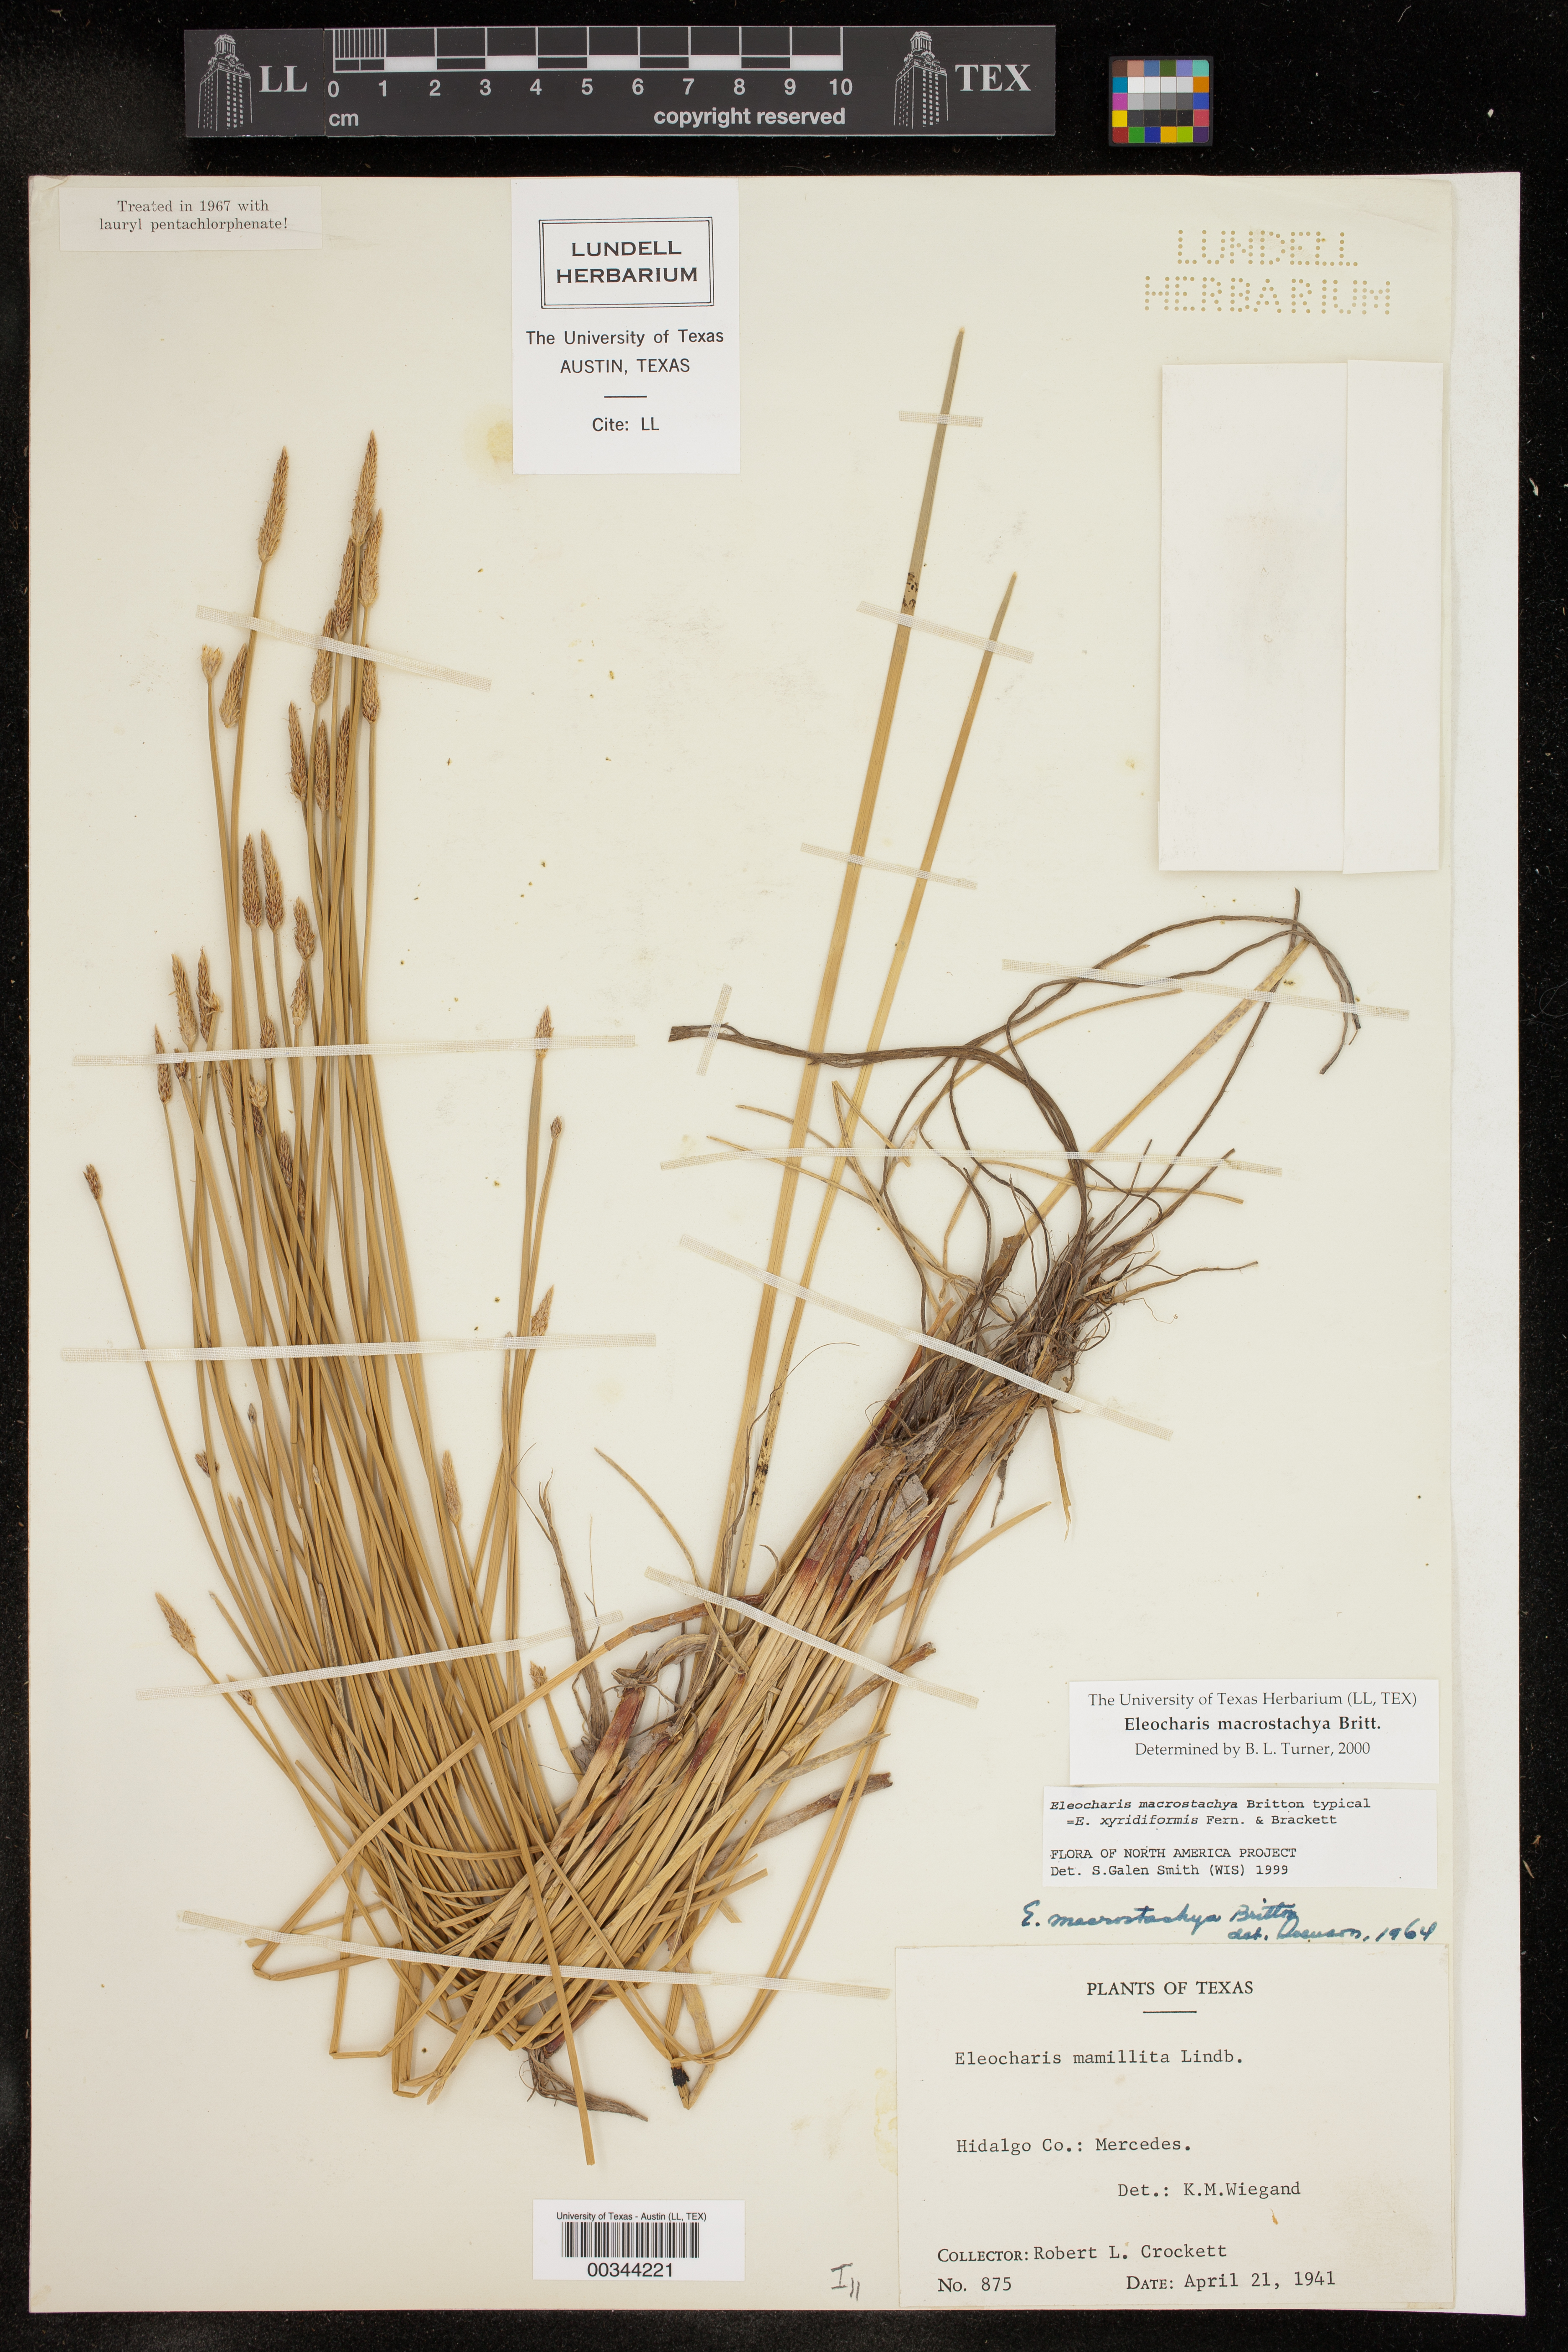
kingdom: Plantae
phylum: Tracheophyta
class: Liliopsida
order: Poales
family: Cyperaceae
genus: Eleocharis
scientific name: Eleocharis macrostachya
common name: Pale spikerush
